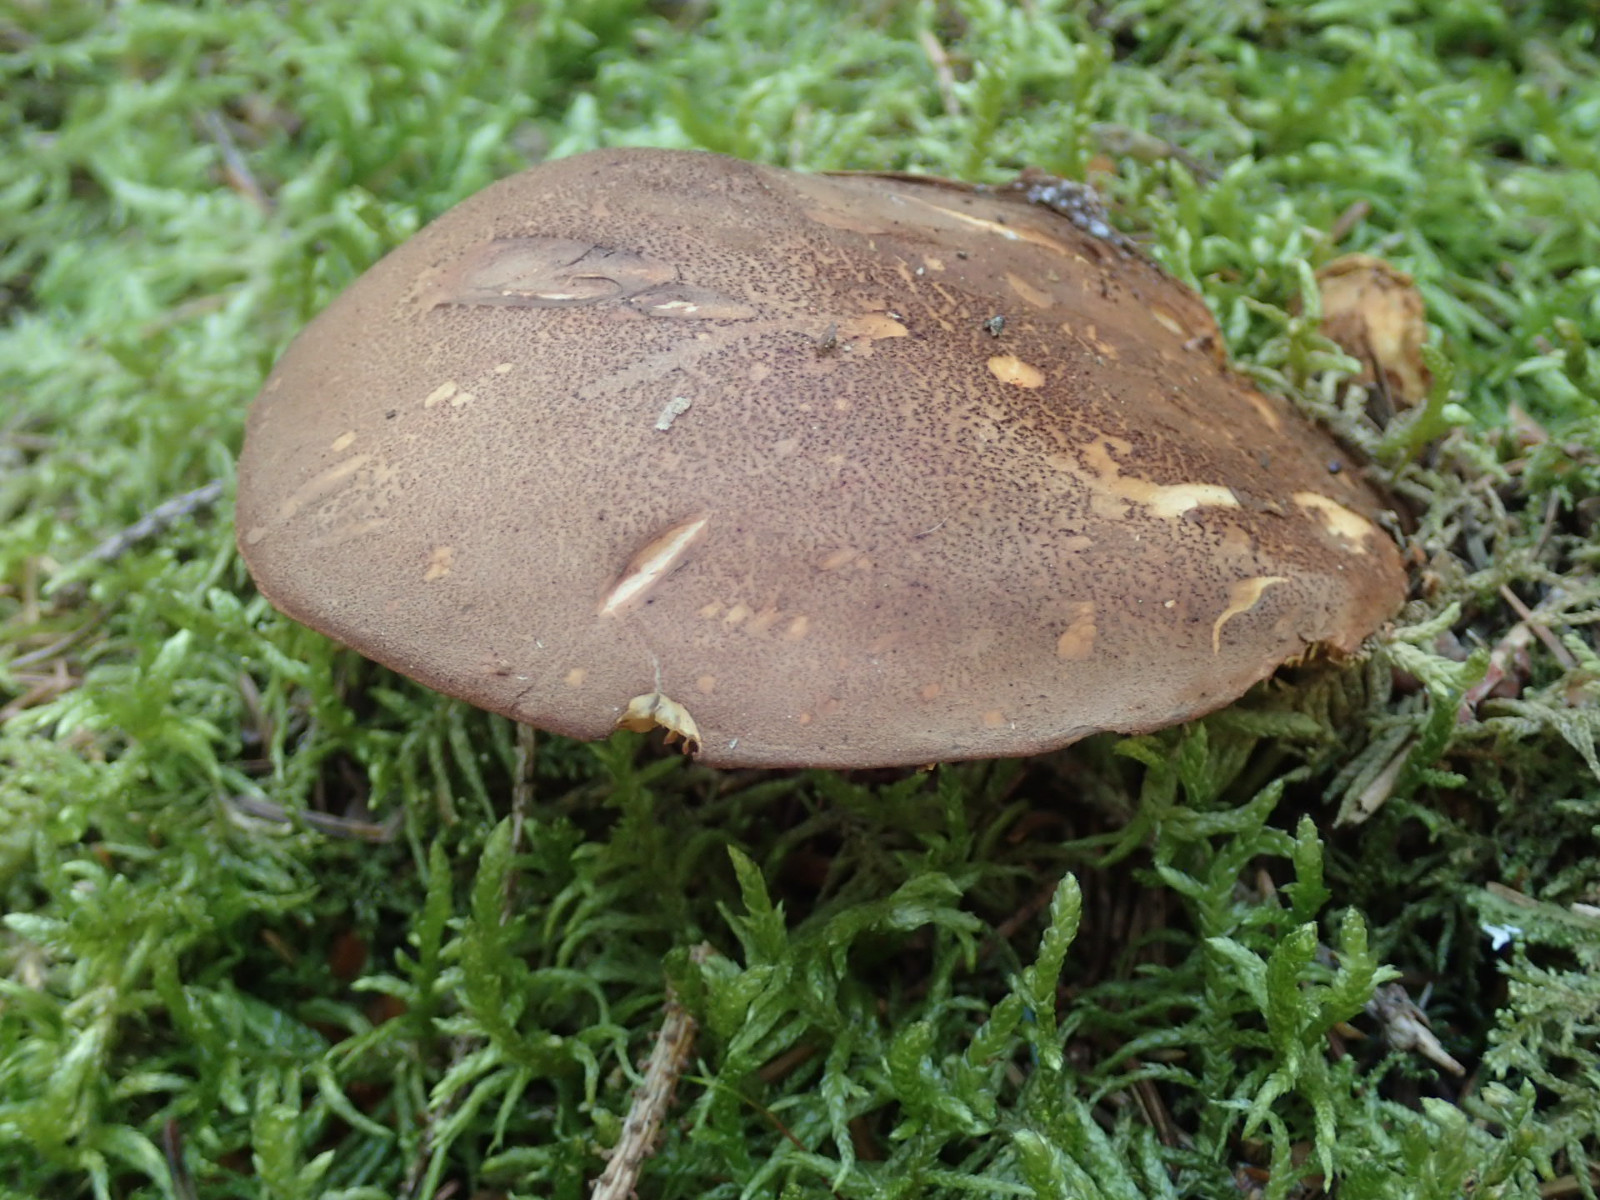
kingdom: Fungi
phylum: Basidiomycota
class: Agaricomycetes
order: Boletales
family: Tapinellaceae
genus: Tapinella
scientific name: Tapinella atrotomentosa
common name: sortfiltet viftesvamp
